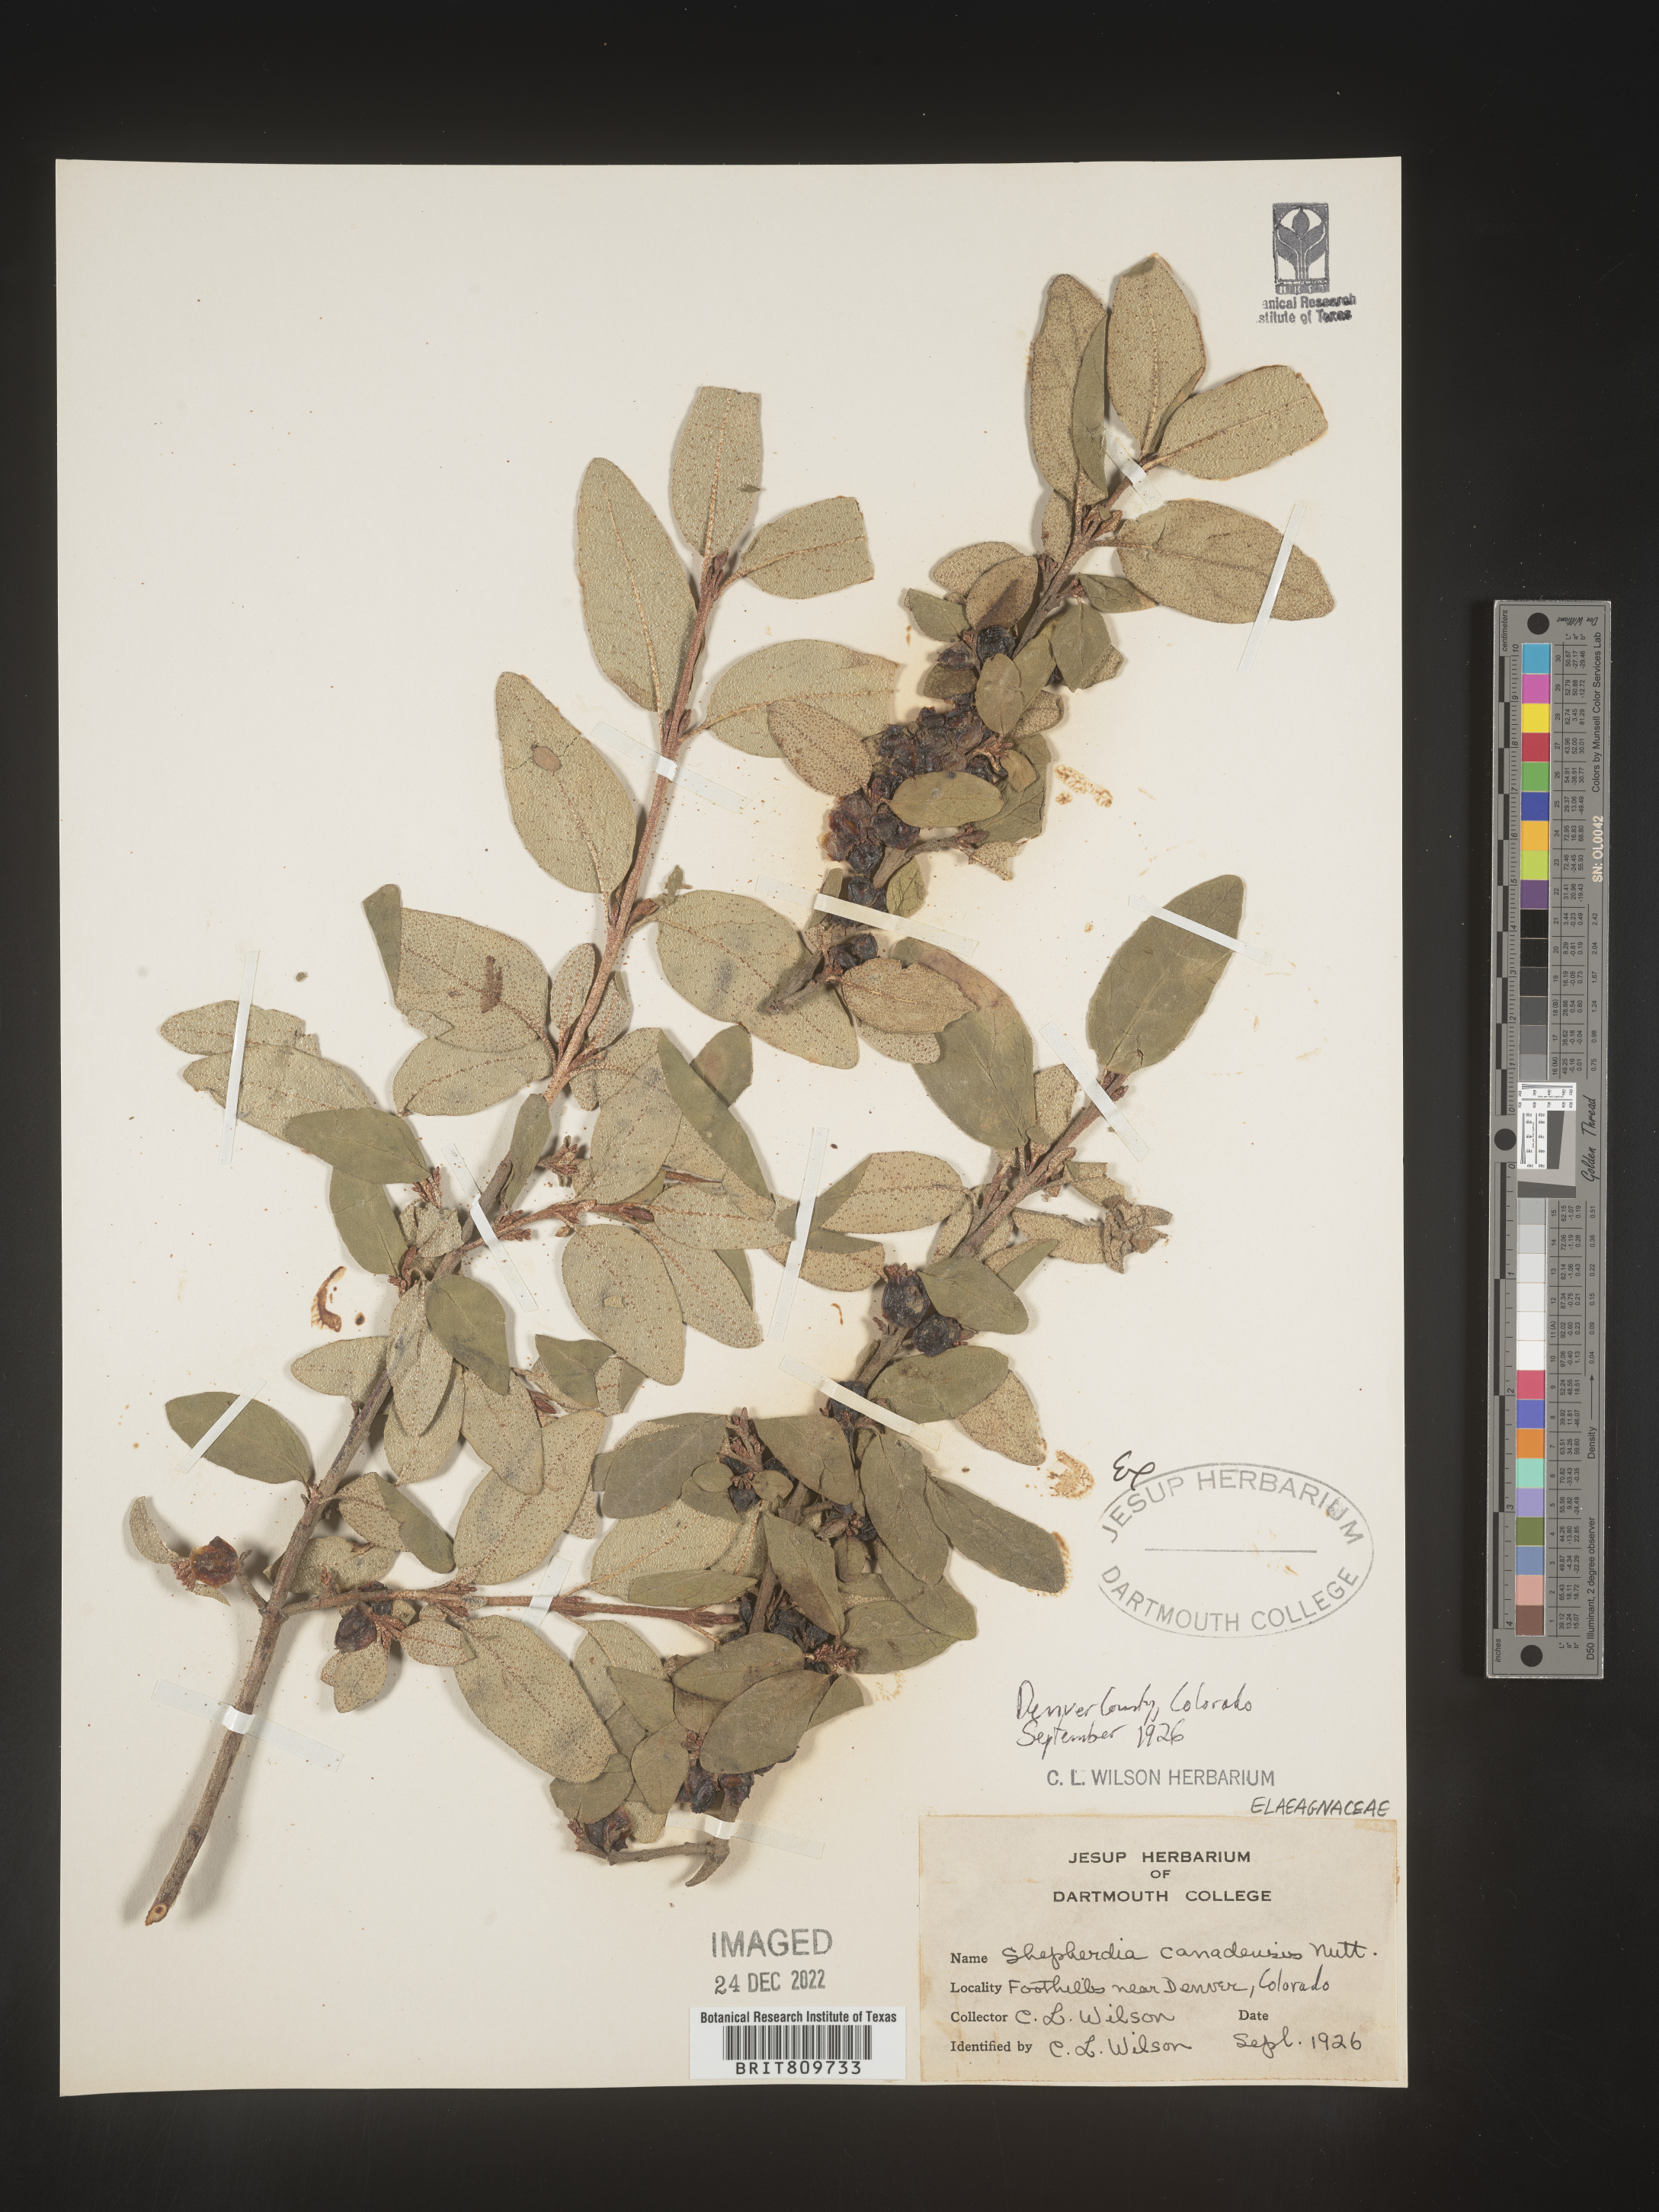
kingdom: Plantae
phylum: Tracheophyta
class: Magnoliopsida
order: Rosales
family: Elaeagnaceae
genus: Shepherdia
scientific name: Shepherdia canadensis
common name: Soapberry
